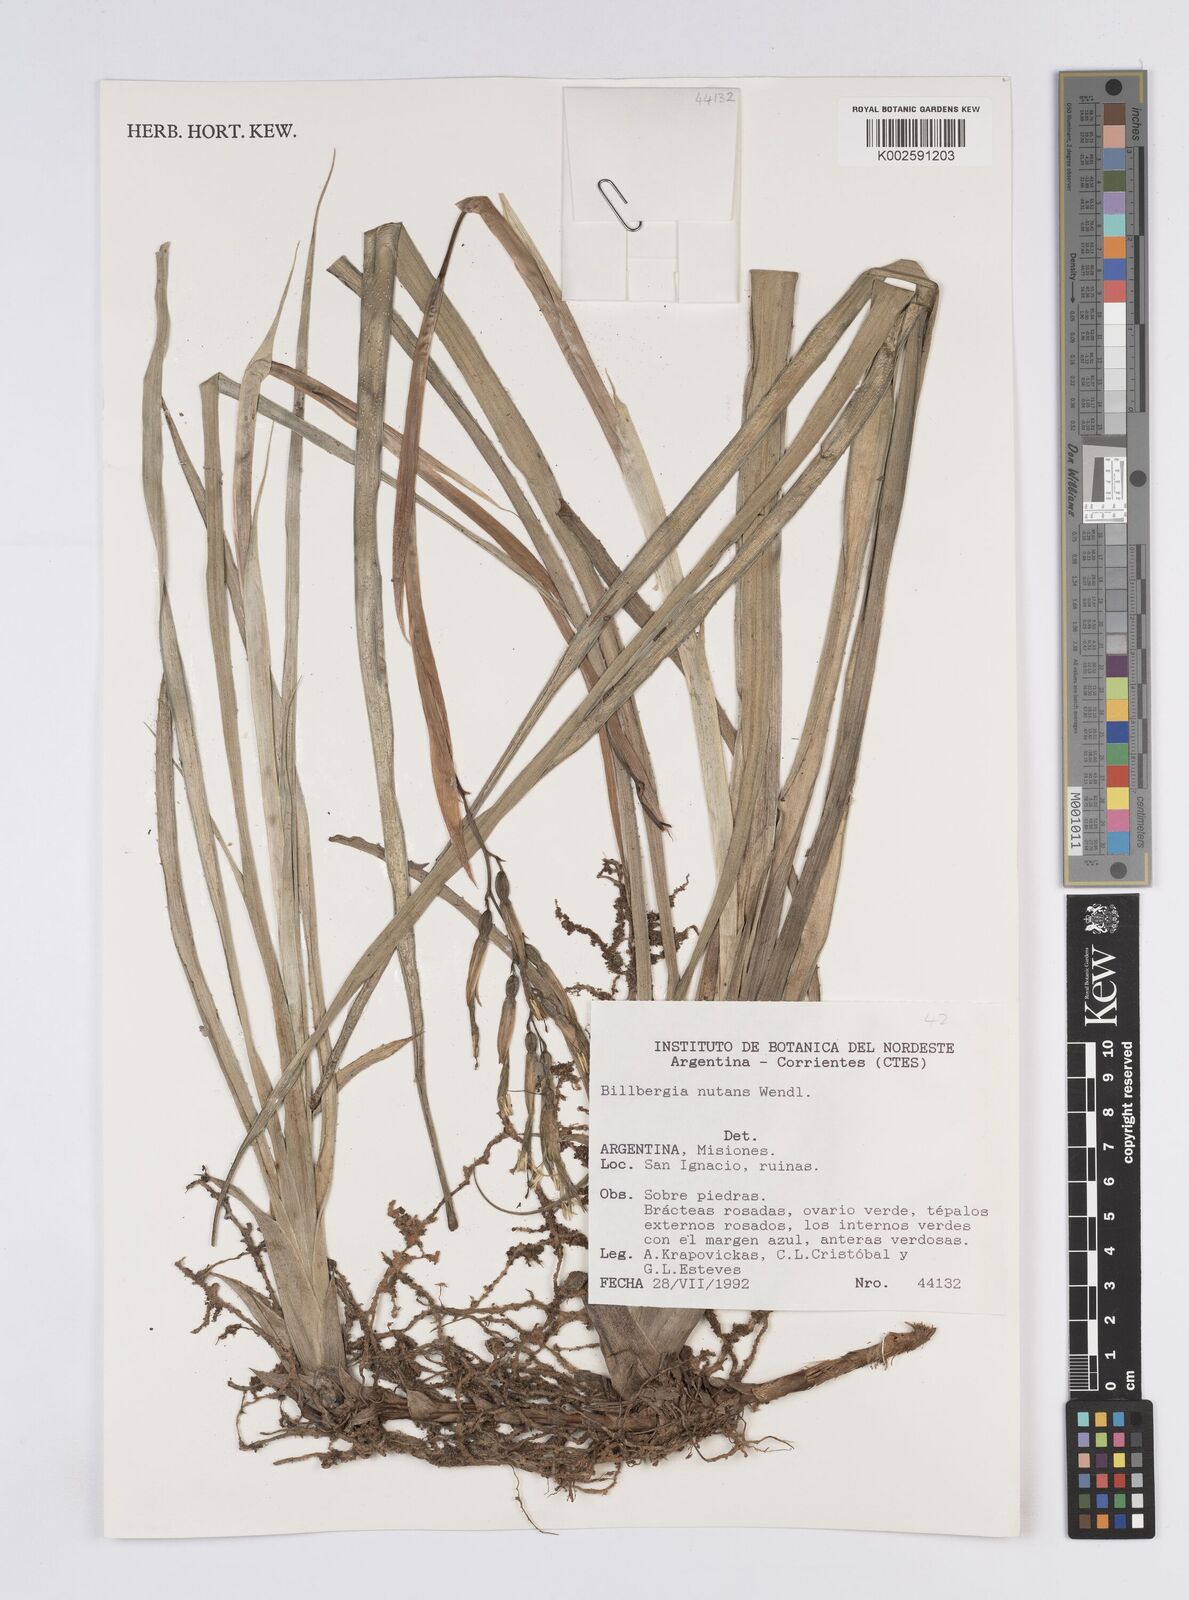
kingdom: Plantae
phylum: Tracheophyta
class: Liliopsida
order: Poales
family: Bromeliaceae
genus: Billbergia
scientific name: Billbergia nutans
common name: Friendship-plant
